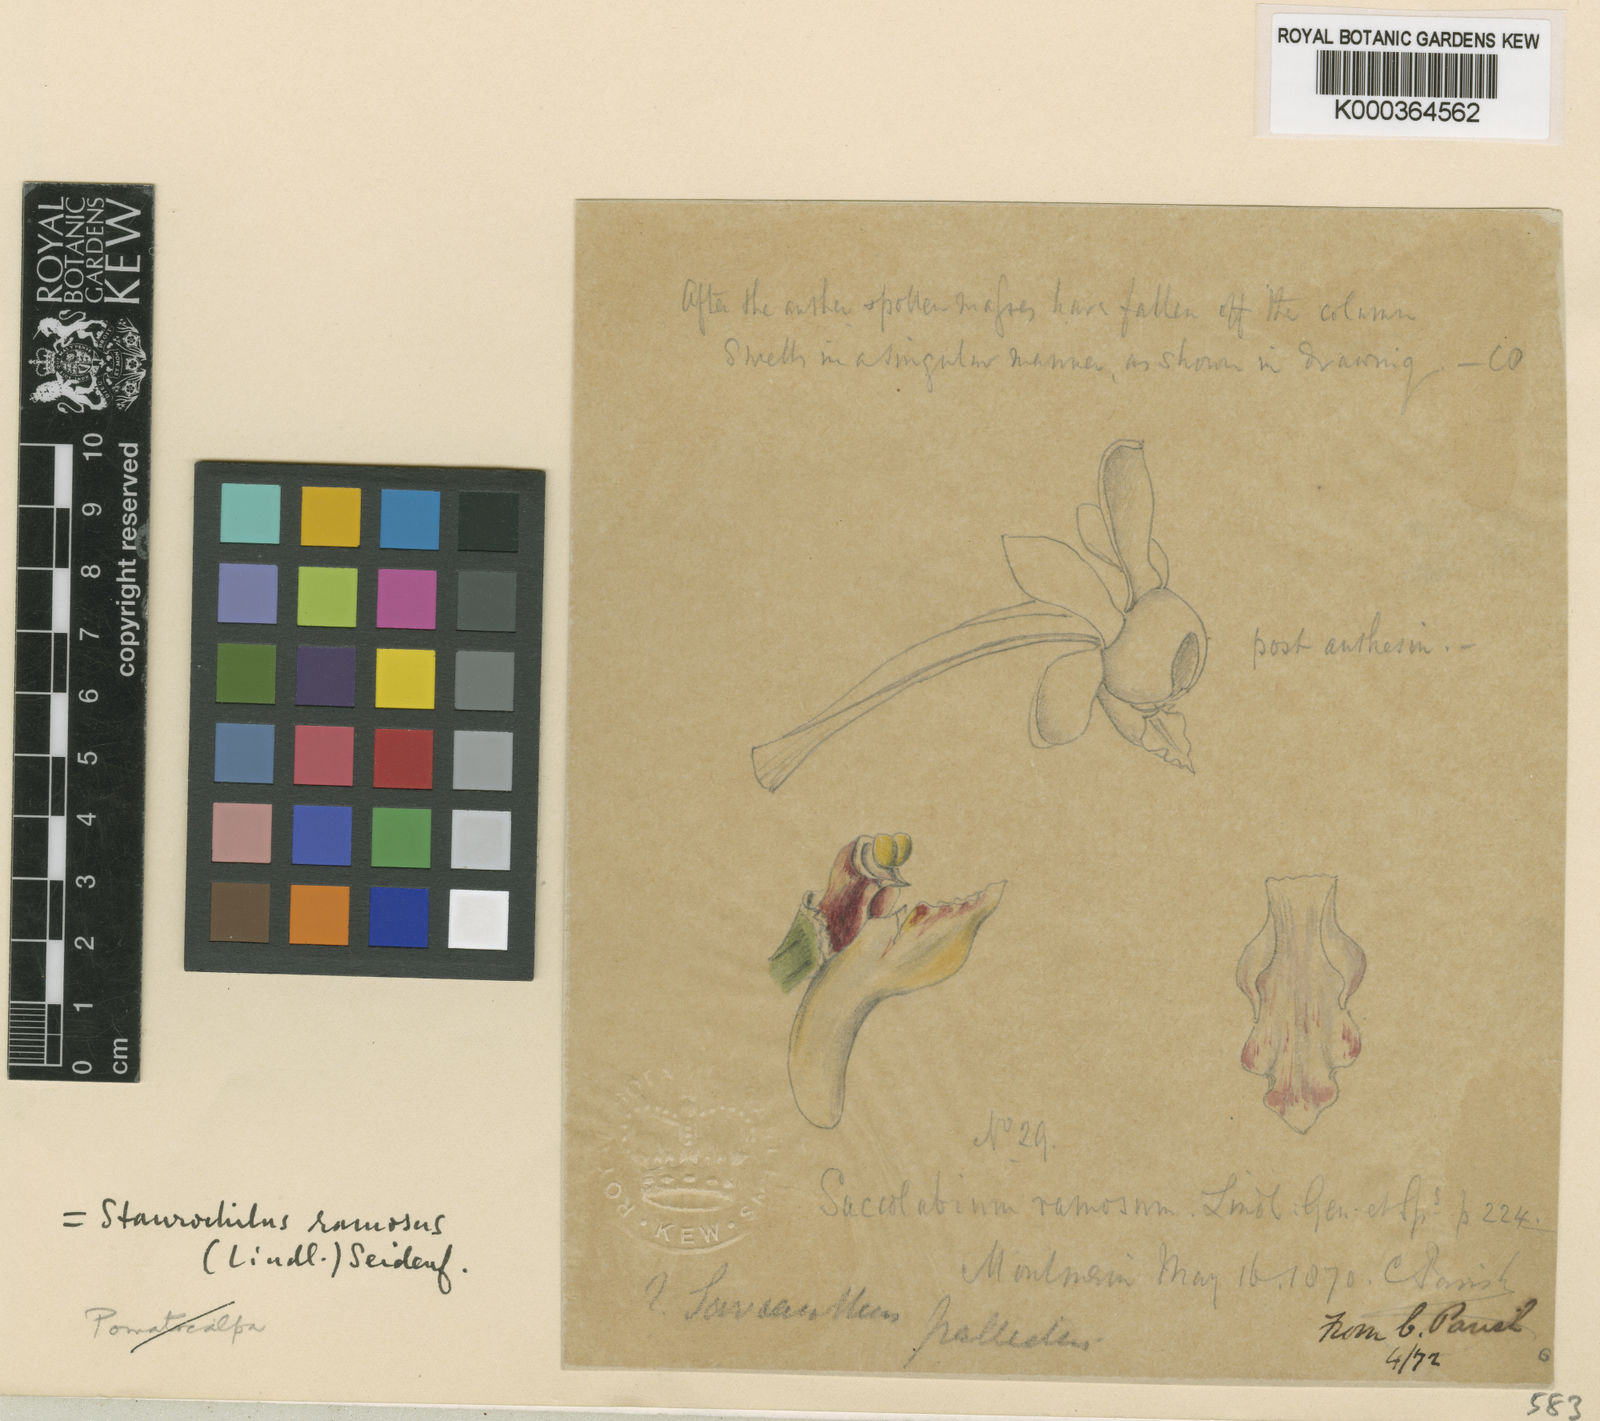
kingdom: Plantae
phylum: Tracheophyta
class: Liliopsida
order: Asparagales
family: Orchidaceae
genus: Trichoglottis
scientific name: Trichoglottis ramosa
